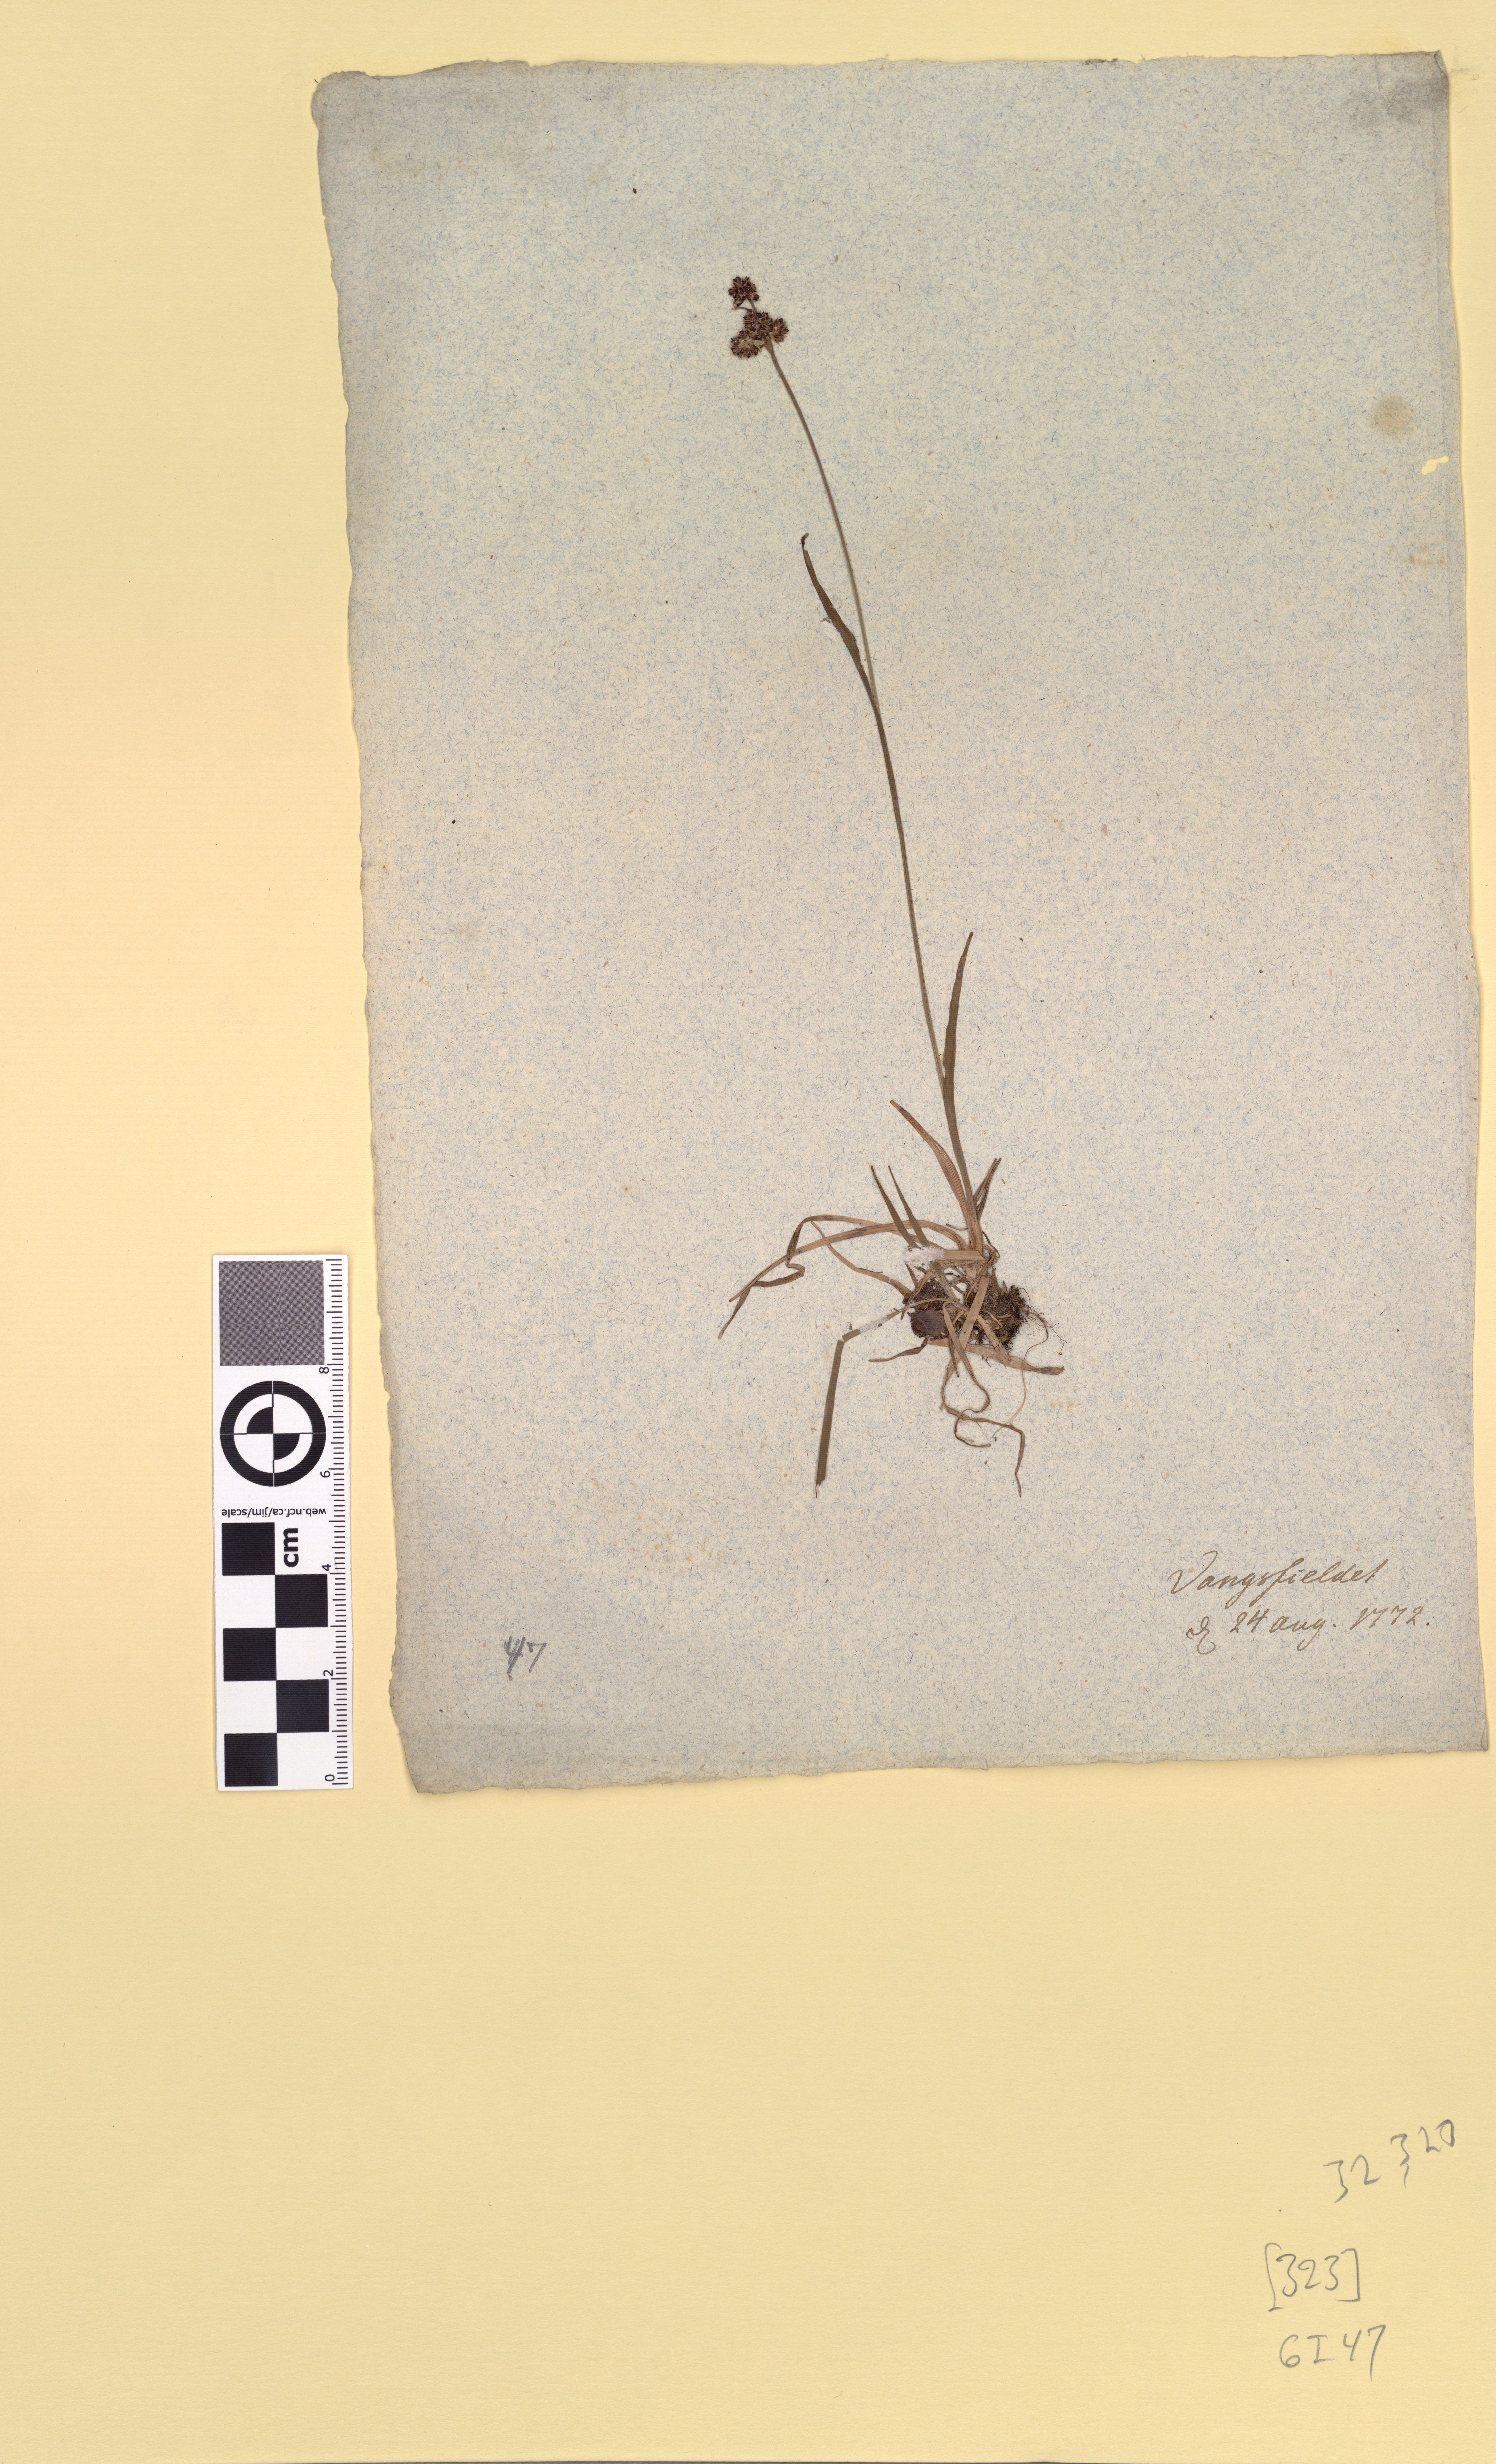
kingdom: Plantae
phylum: Tracheophyta
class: Liliopsida
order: Poales
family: Juncaceae
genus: Luzula
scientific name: Luzula sudetica
